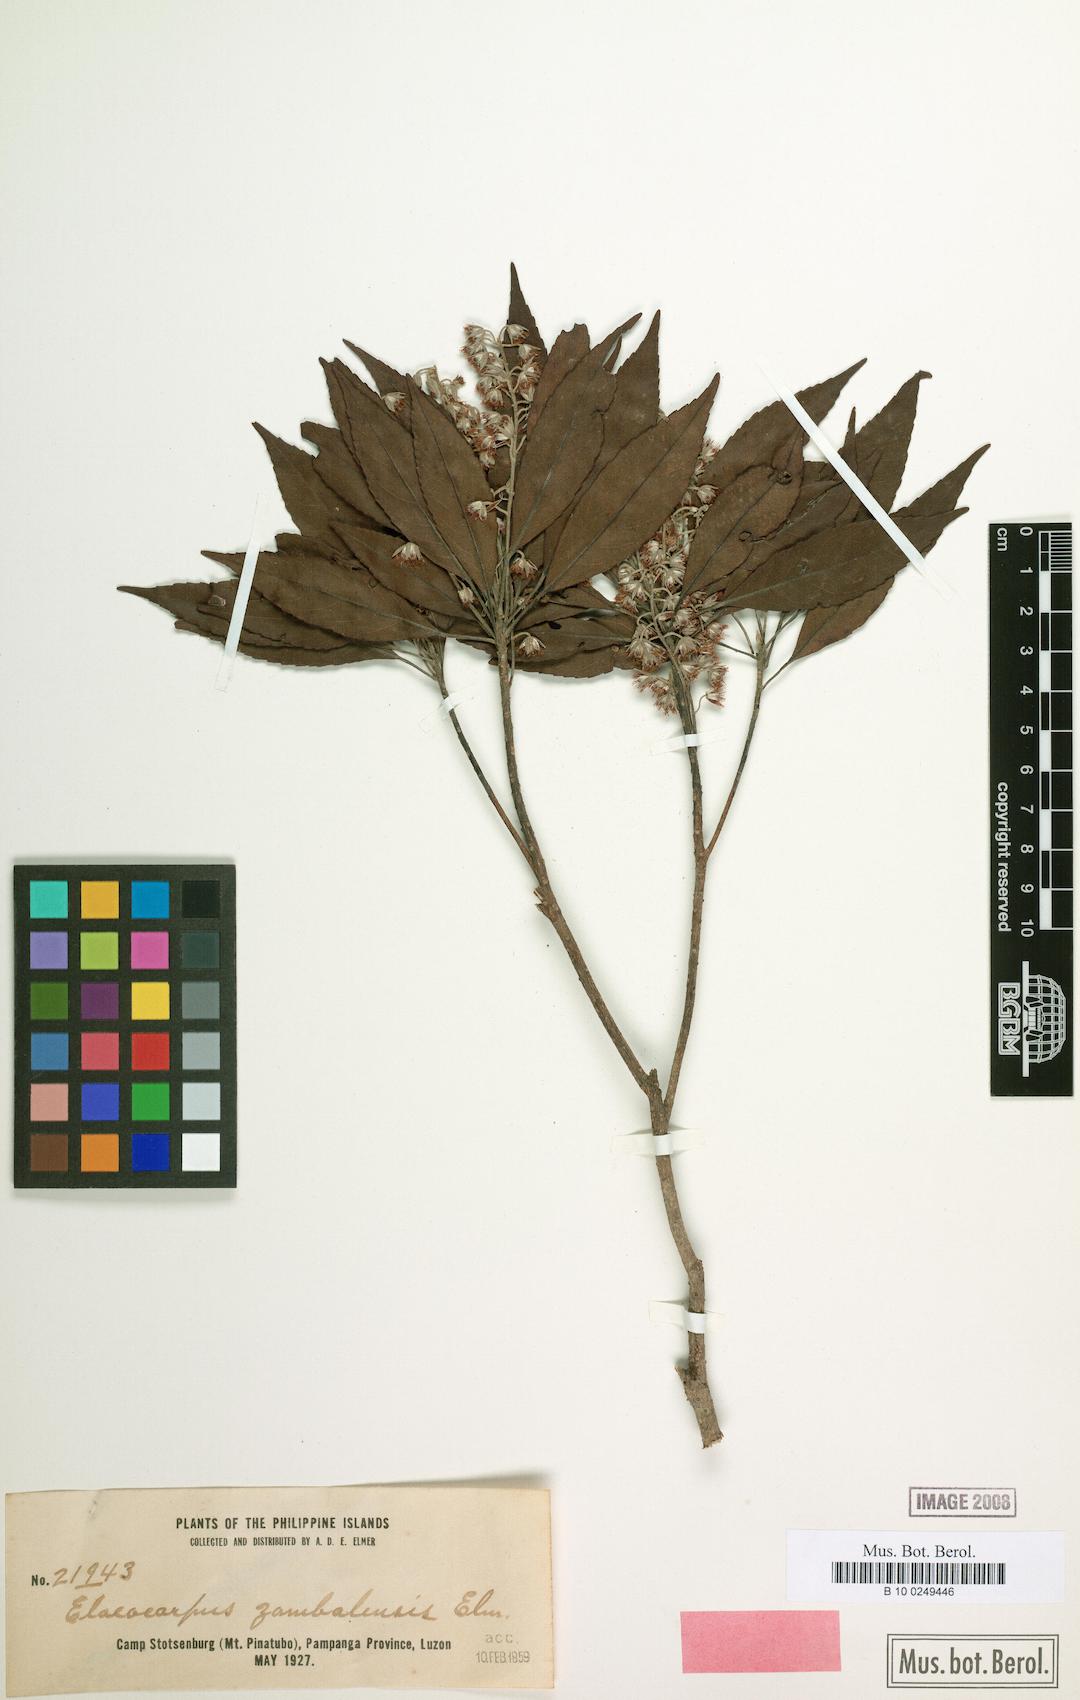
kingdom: Plantae
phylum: Tracheophyta
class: Magnoliopsida
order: Oxalidales
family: Elaeocarpaceae
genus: Elaeocarpus
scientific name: Elaeocarpus elmeri
